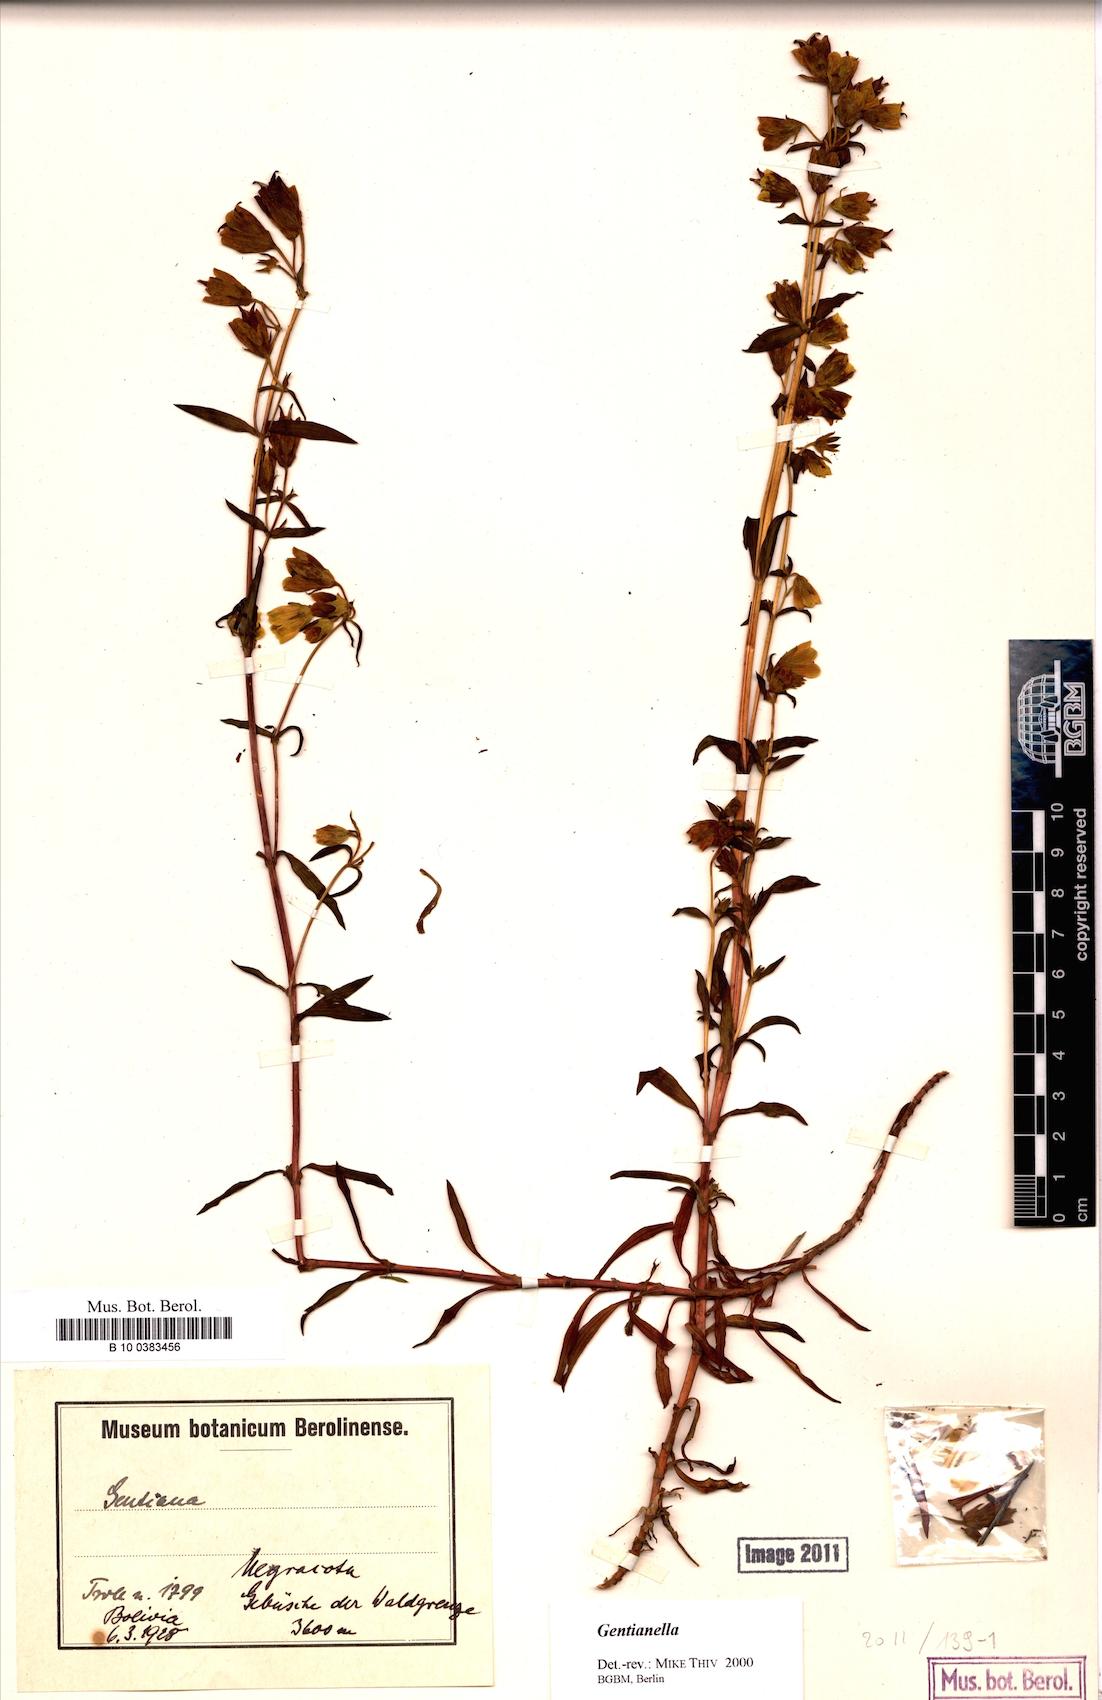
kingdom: Plantae
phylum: Tracheophyta
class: Magnoliopsida
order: Gentianales
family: Gentianaceae
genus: Gentianella
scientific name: Gentianella
